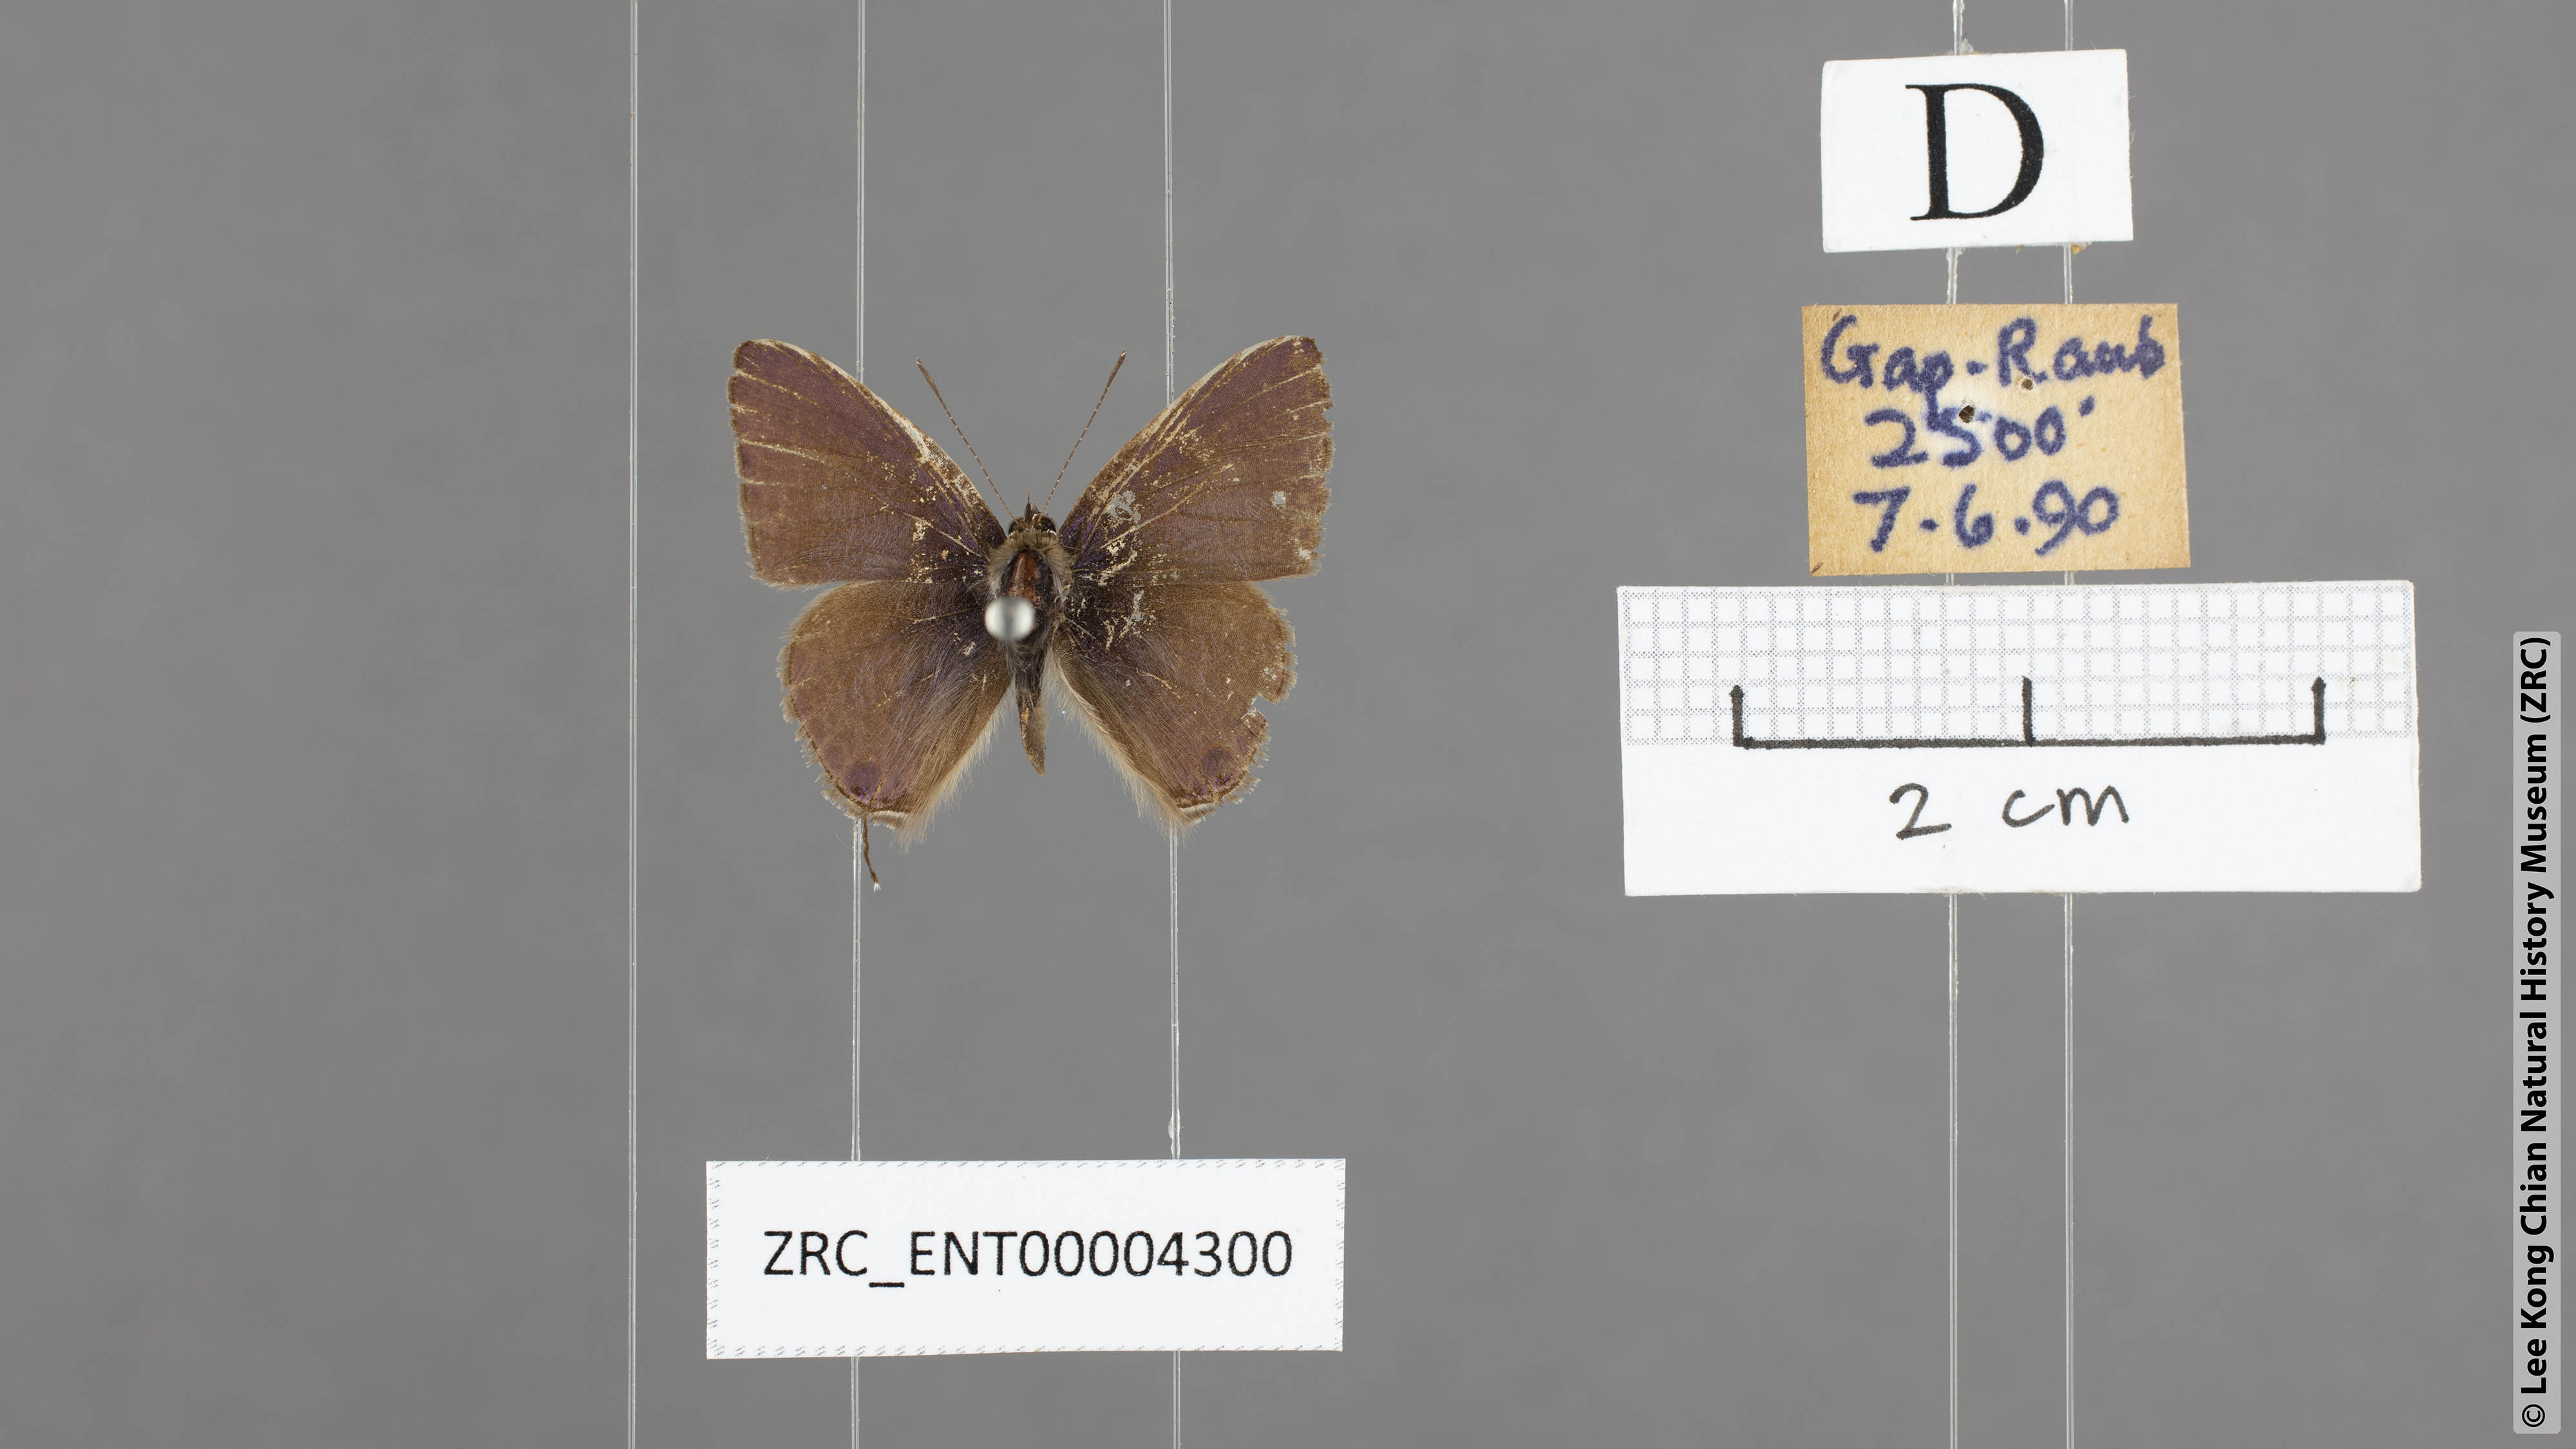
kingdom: Animalia
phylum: Arthropoda
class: Insecta
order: Lepidoptera
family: Lycaenidae
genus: Ionolyce
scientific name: Ionolyce helicon
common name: Pointed line blue
